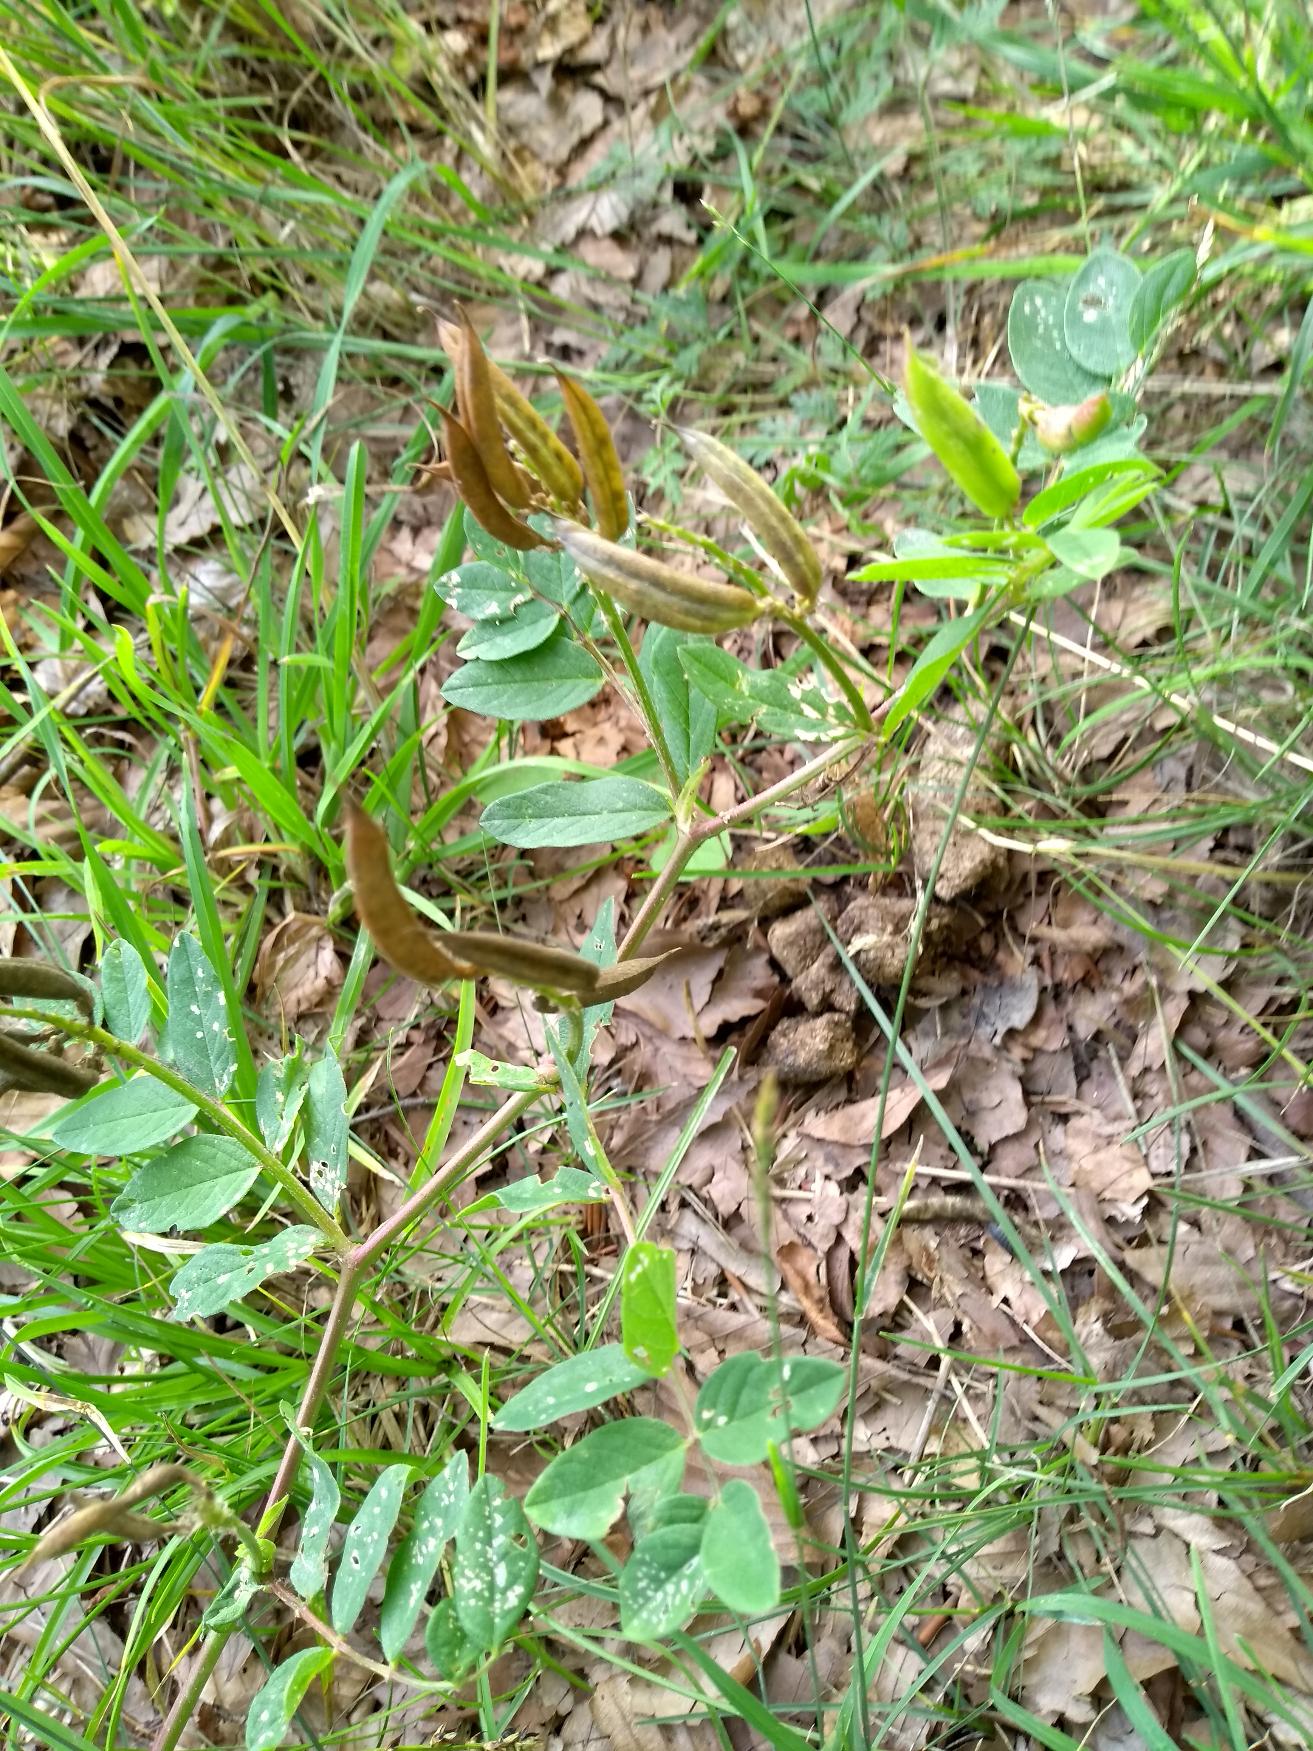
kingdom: Plantae
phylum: Tracheophyta
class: Magnoliopsida
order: Fabales
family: Fabaceae
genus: Astragalus
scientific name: Astragalus glycyphyllos
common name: Sød astragel
